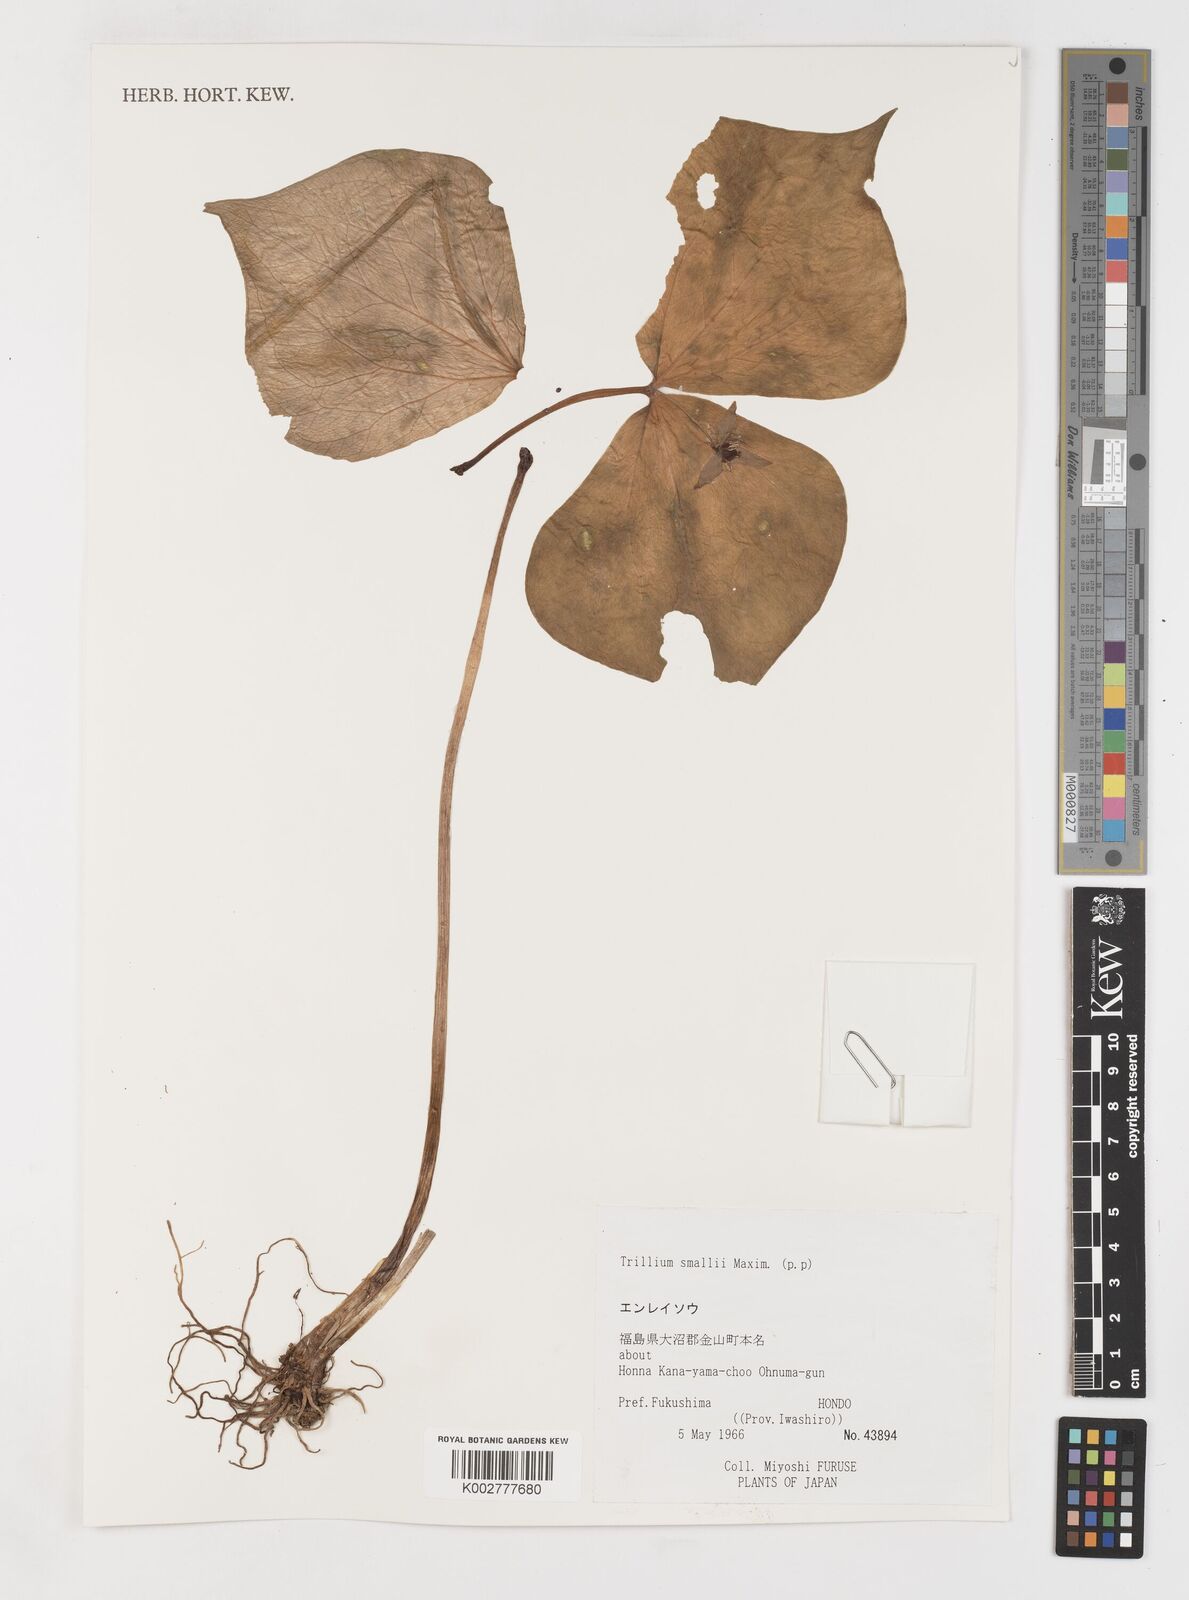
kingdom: Plantae
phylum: Tracheophyta
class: Liliopsida
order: Liliales
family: Melanthiaceae
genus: Trillium
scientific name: Trillium smallii
